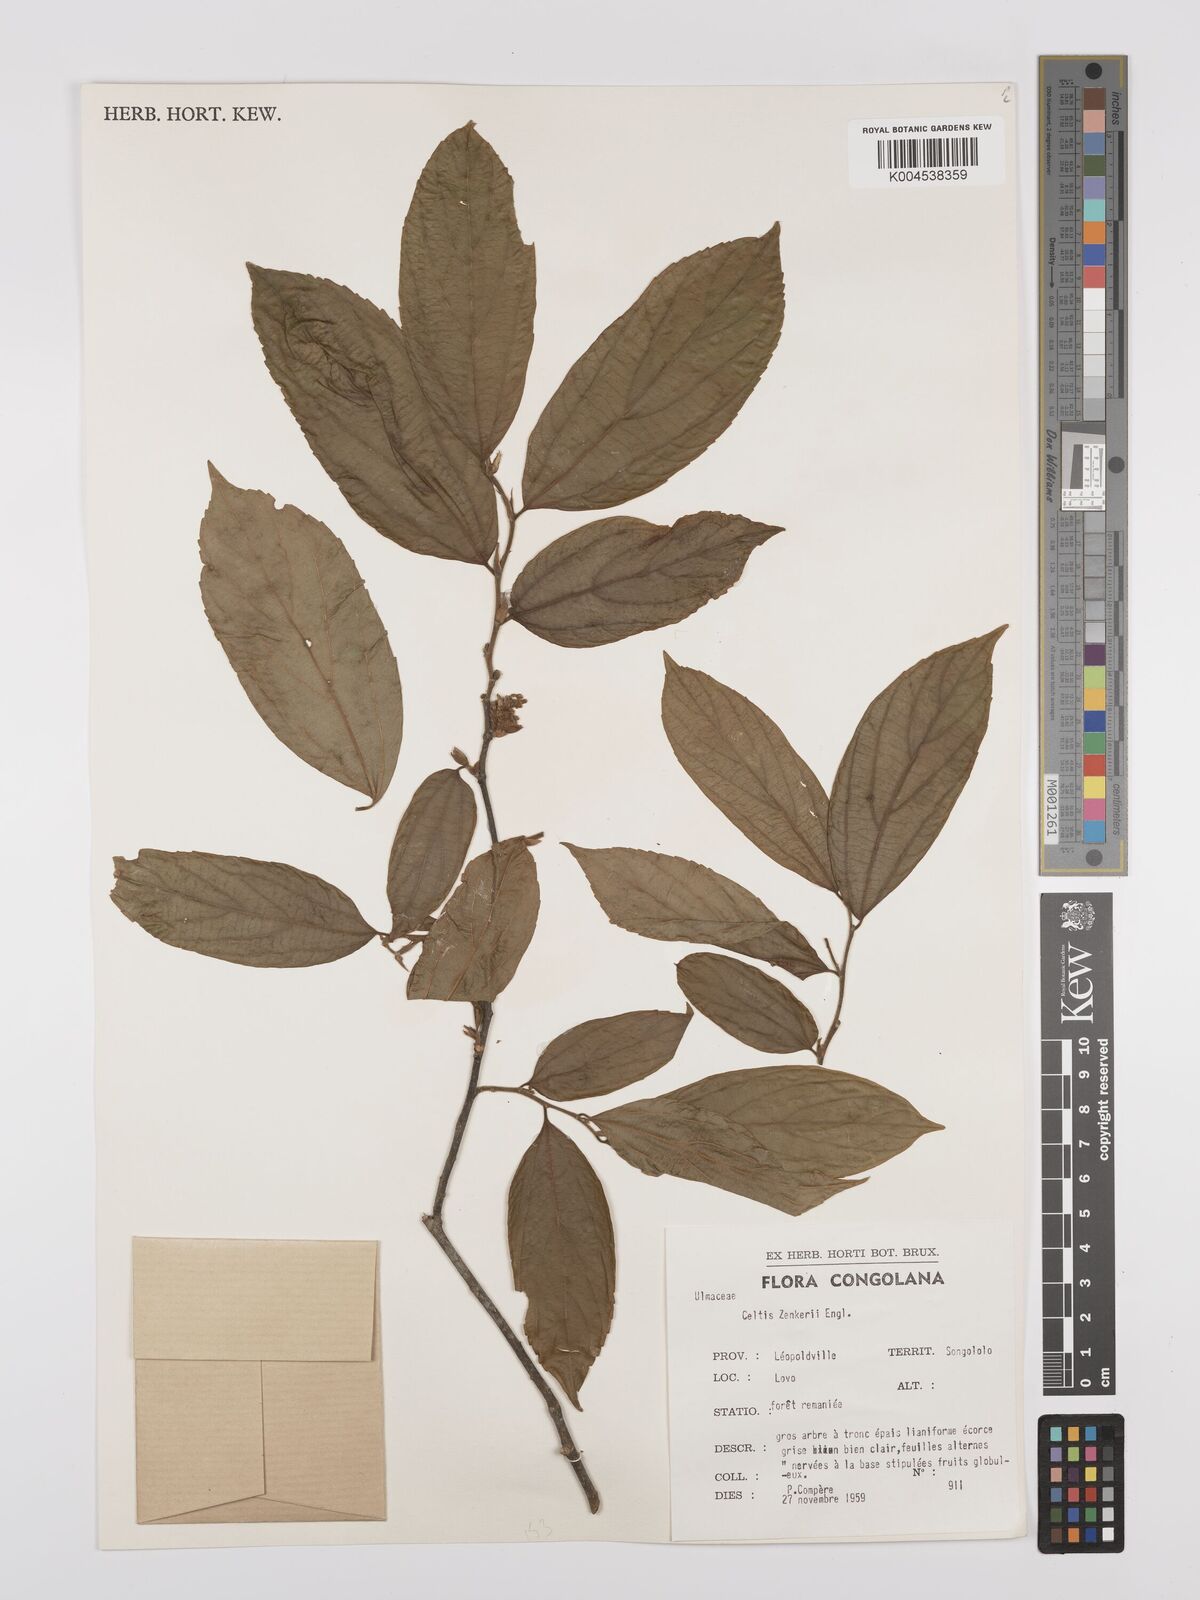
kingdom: Plantae
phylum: Tracheophyta
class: Magnoliopsida
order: Rosales
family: Cannabaceae
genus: Celtis
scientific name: Celtis zenkeri
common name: African celtis
